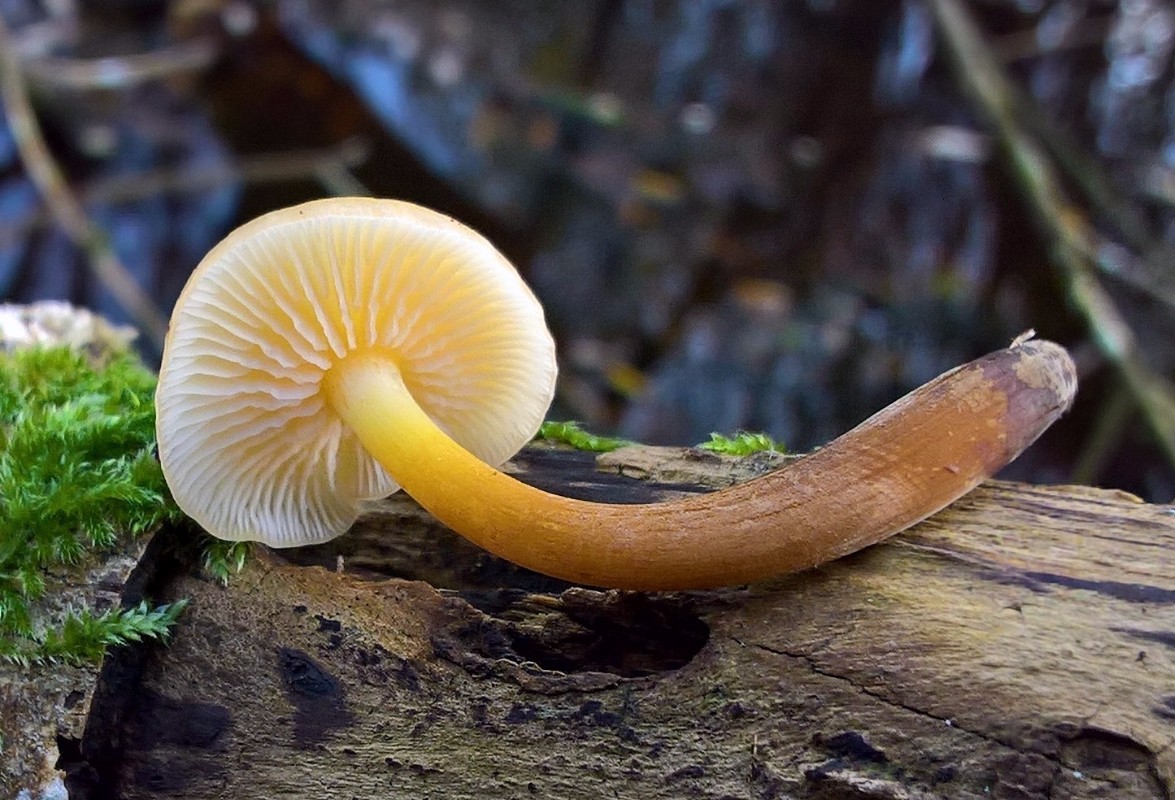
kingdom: Fungi
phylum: Basidiomycota
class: Agaricomycetes
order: Agaricales
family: Physalacriaceae
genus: Flammulina
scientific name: Flammulina
